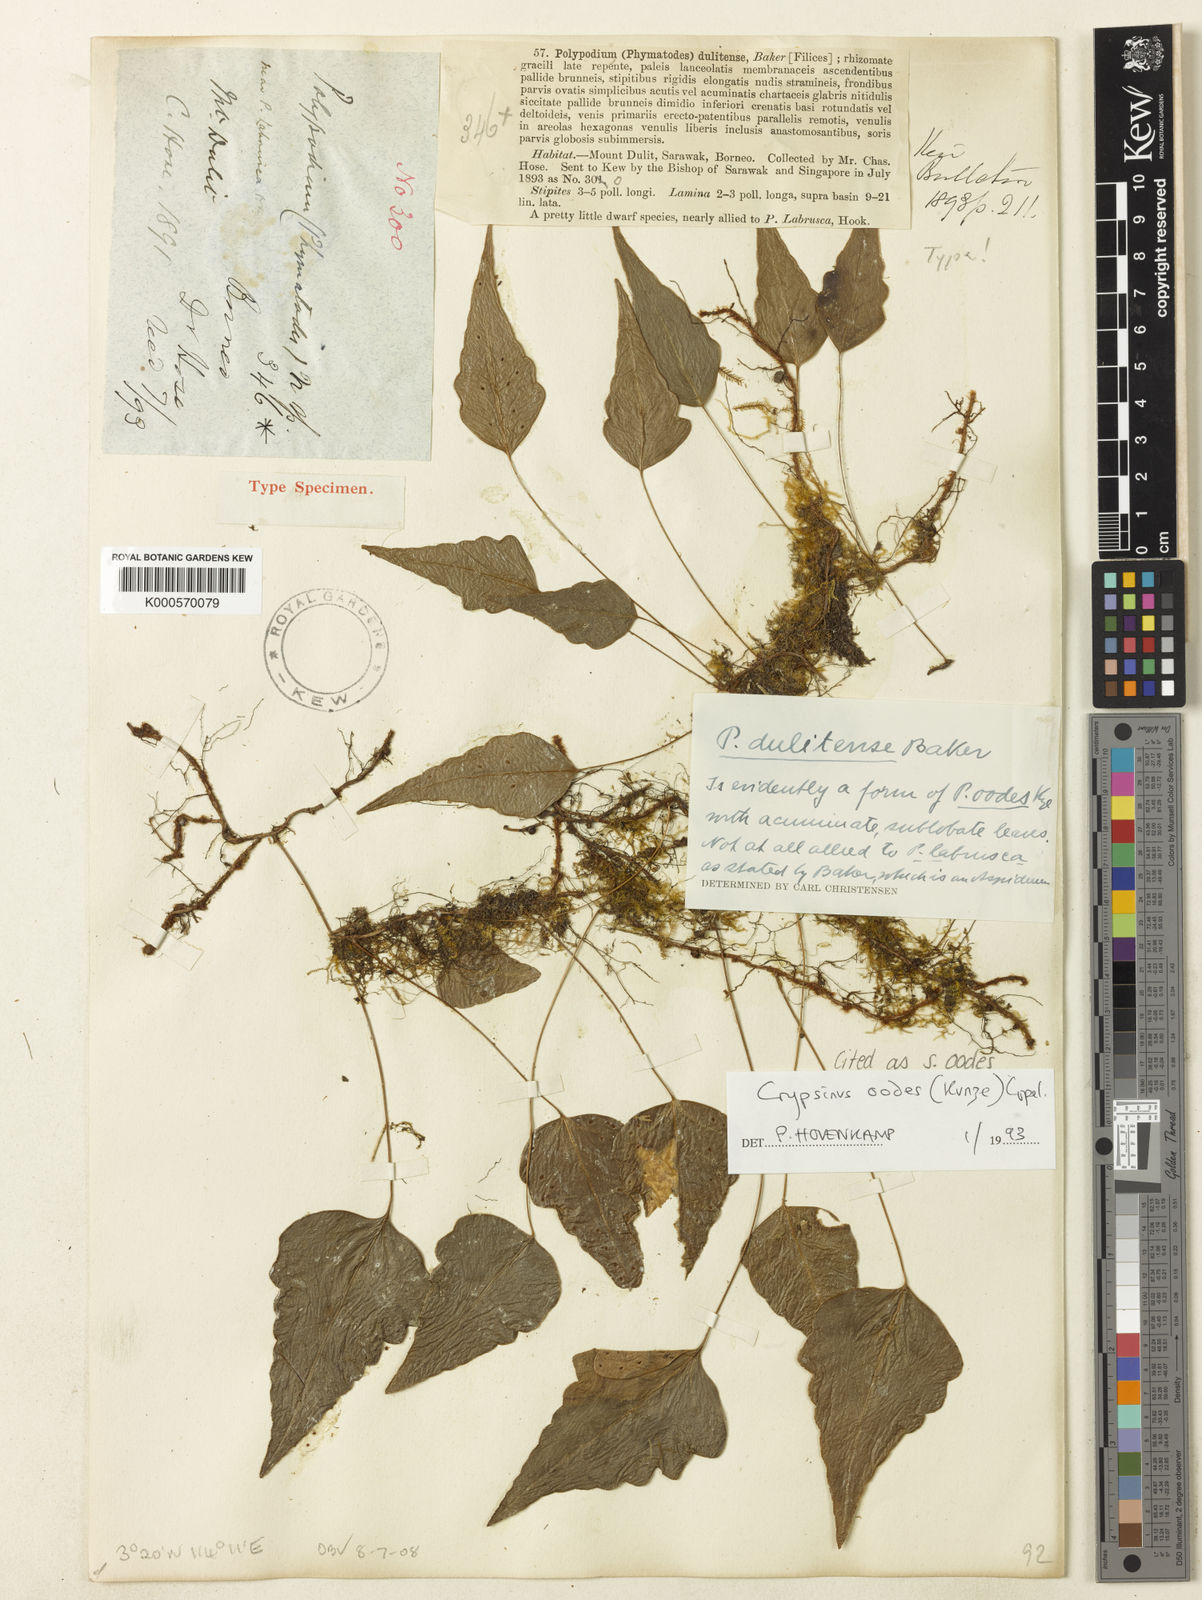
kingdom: Plantae
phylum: Tracheophyta
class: Polypodiopsida
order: Polypodiales
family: Polypodiaceae
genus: Selliguea
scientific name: Selliguea oodes
